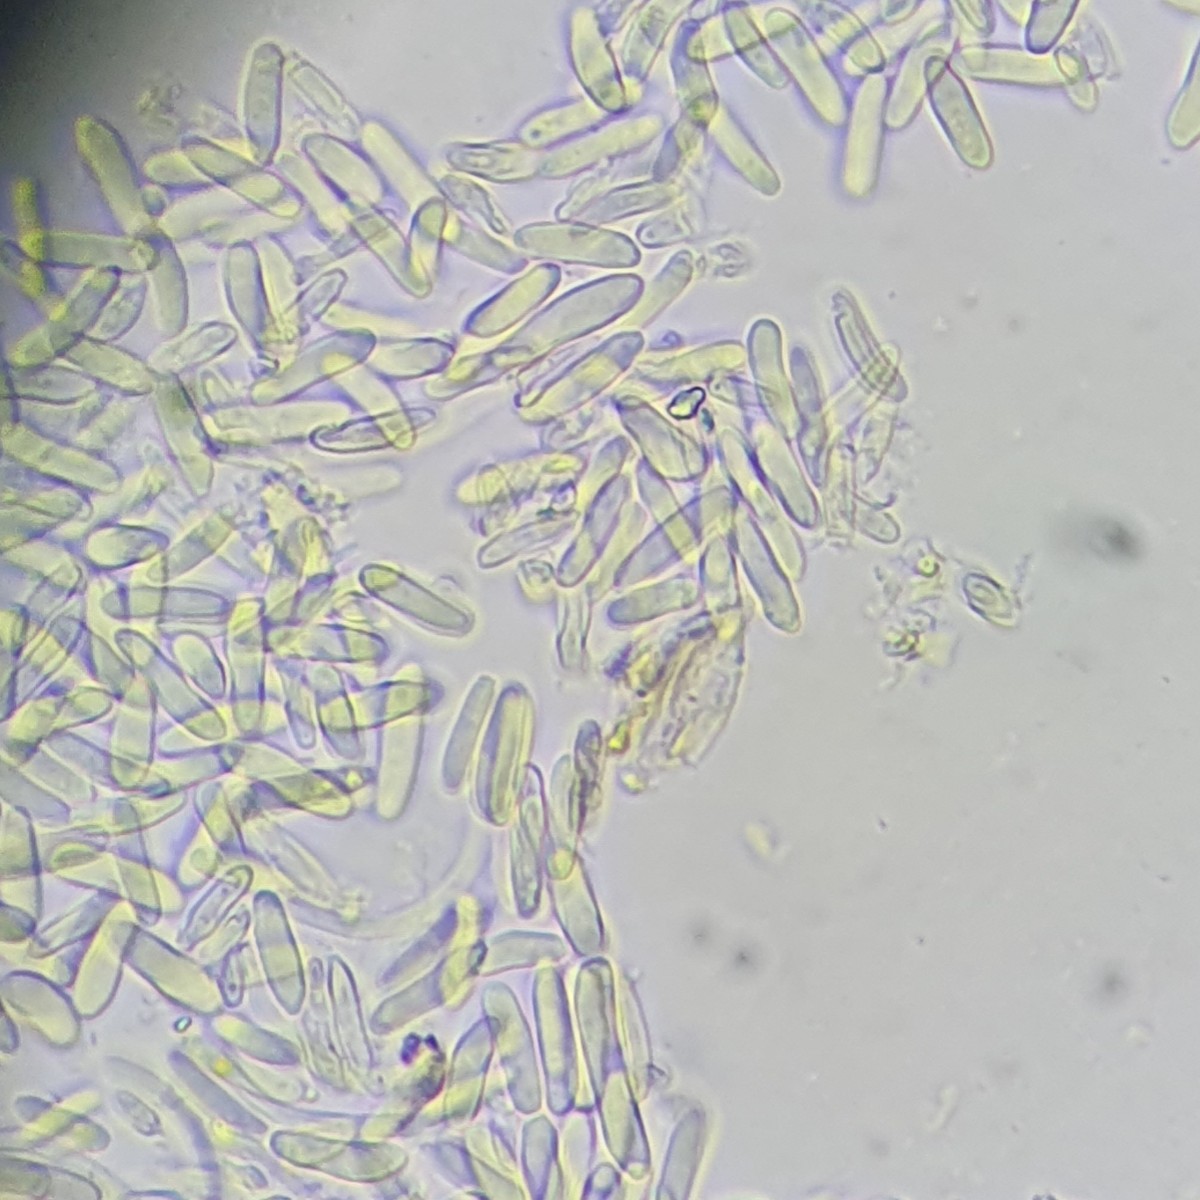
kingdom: Fungi
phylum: Ascomycota
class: Sordariomycetes
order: Hypocreales
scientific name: Hypocreales
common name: kødkerneordenen
